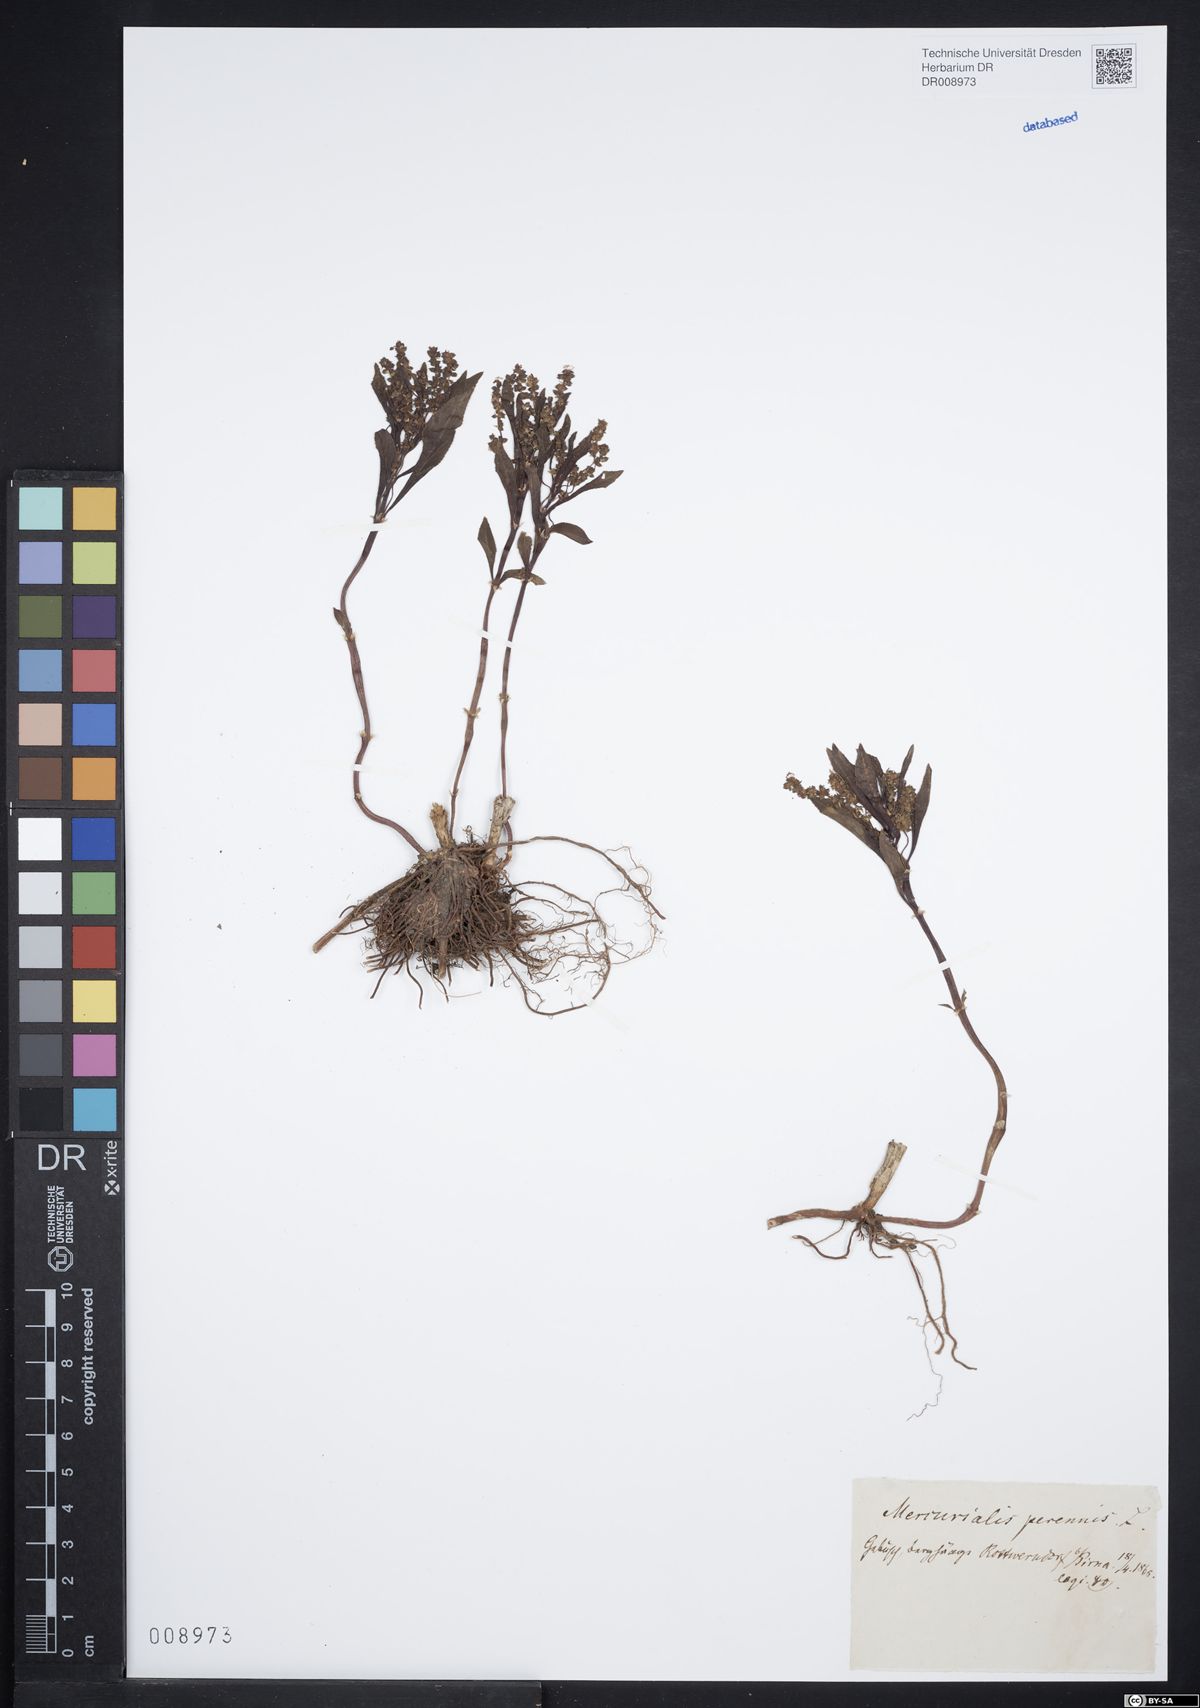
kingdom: Plantae
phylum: Tracheophyta
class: Magnoliopsida
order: Malpighiales
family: Euphorbiaceae
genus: Mercurialis
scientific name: Mercurialis perennis
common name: Dog mercury
